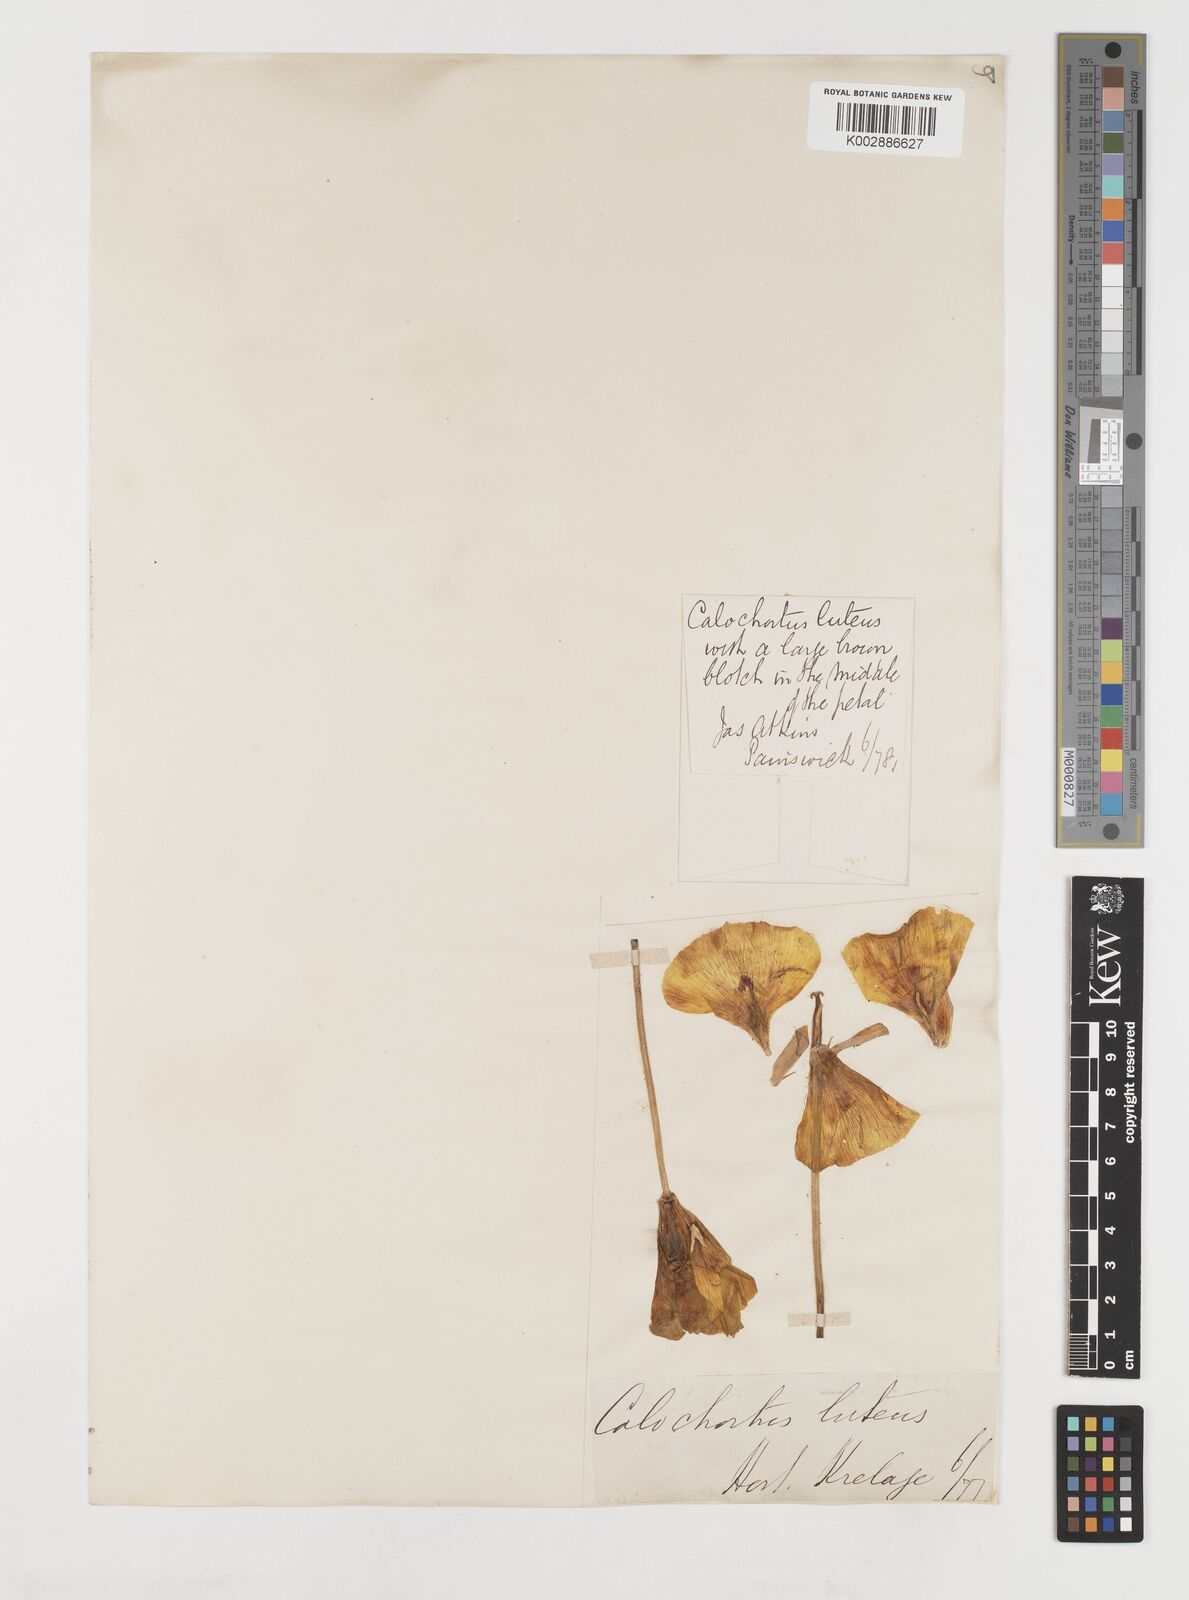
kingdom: Plantae
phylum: Tracheophyta
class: Liliopsida
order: Liliales
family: Liliaceae
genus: Calochortus
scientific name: Calochortus nuttallii
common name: Sego-lily
